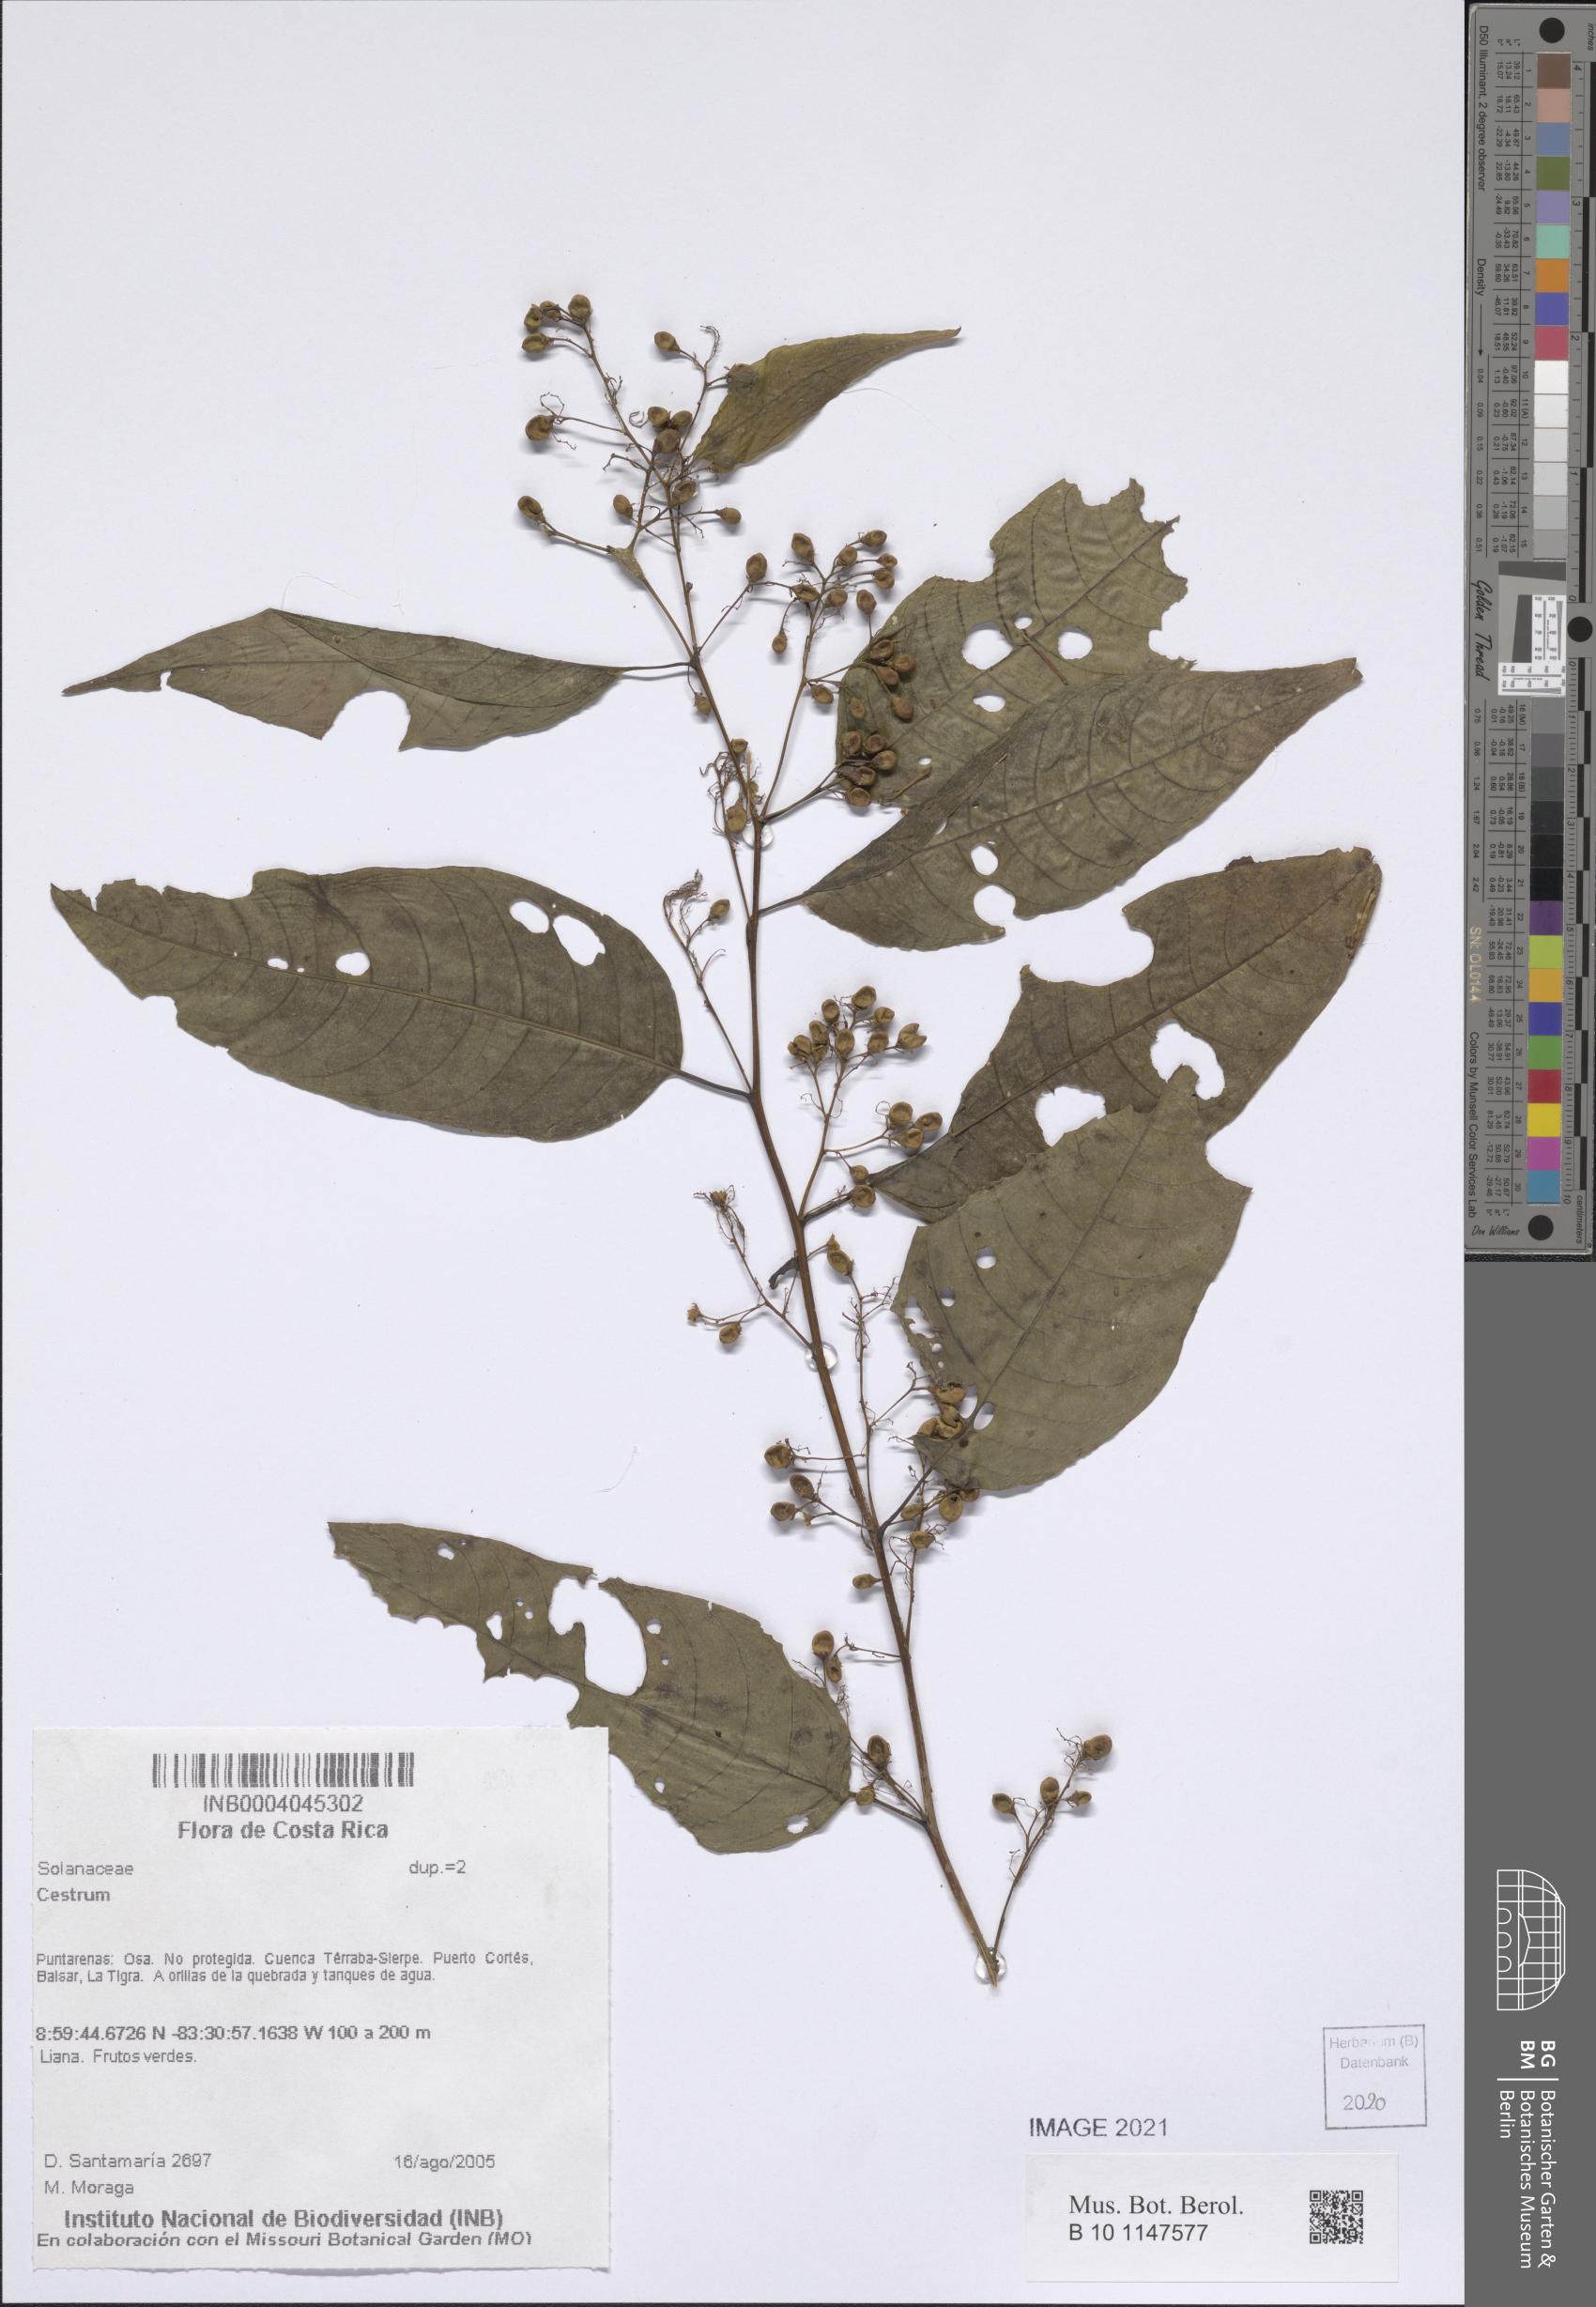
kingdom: Plantae
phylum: Tracheophyta
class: Magnoliopsida
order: Solanales
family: Solanaceae
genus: Cestrum
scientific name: Cestrum
